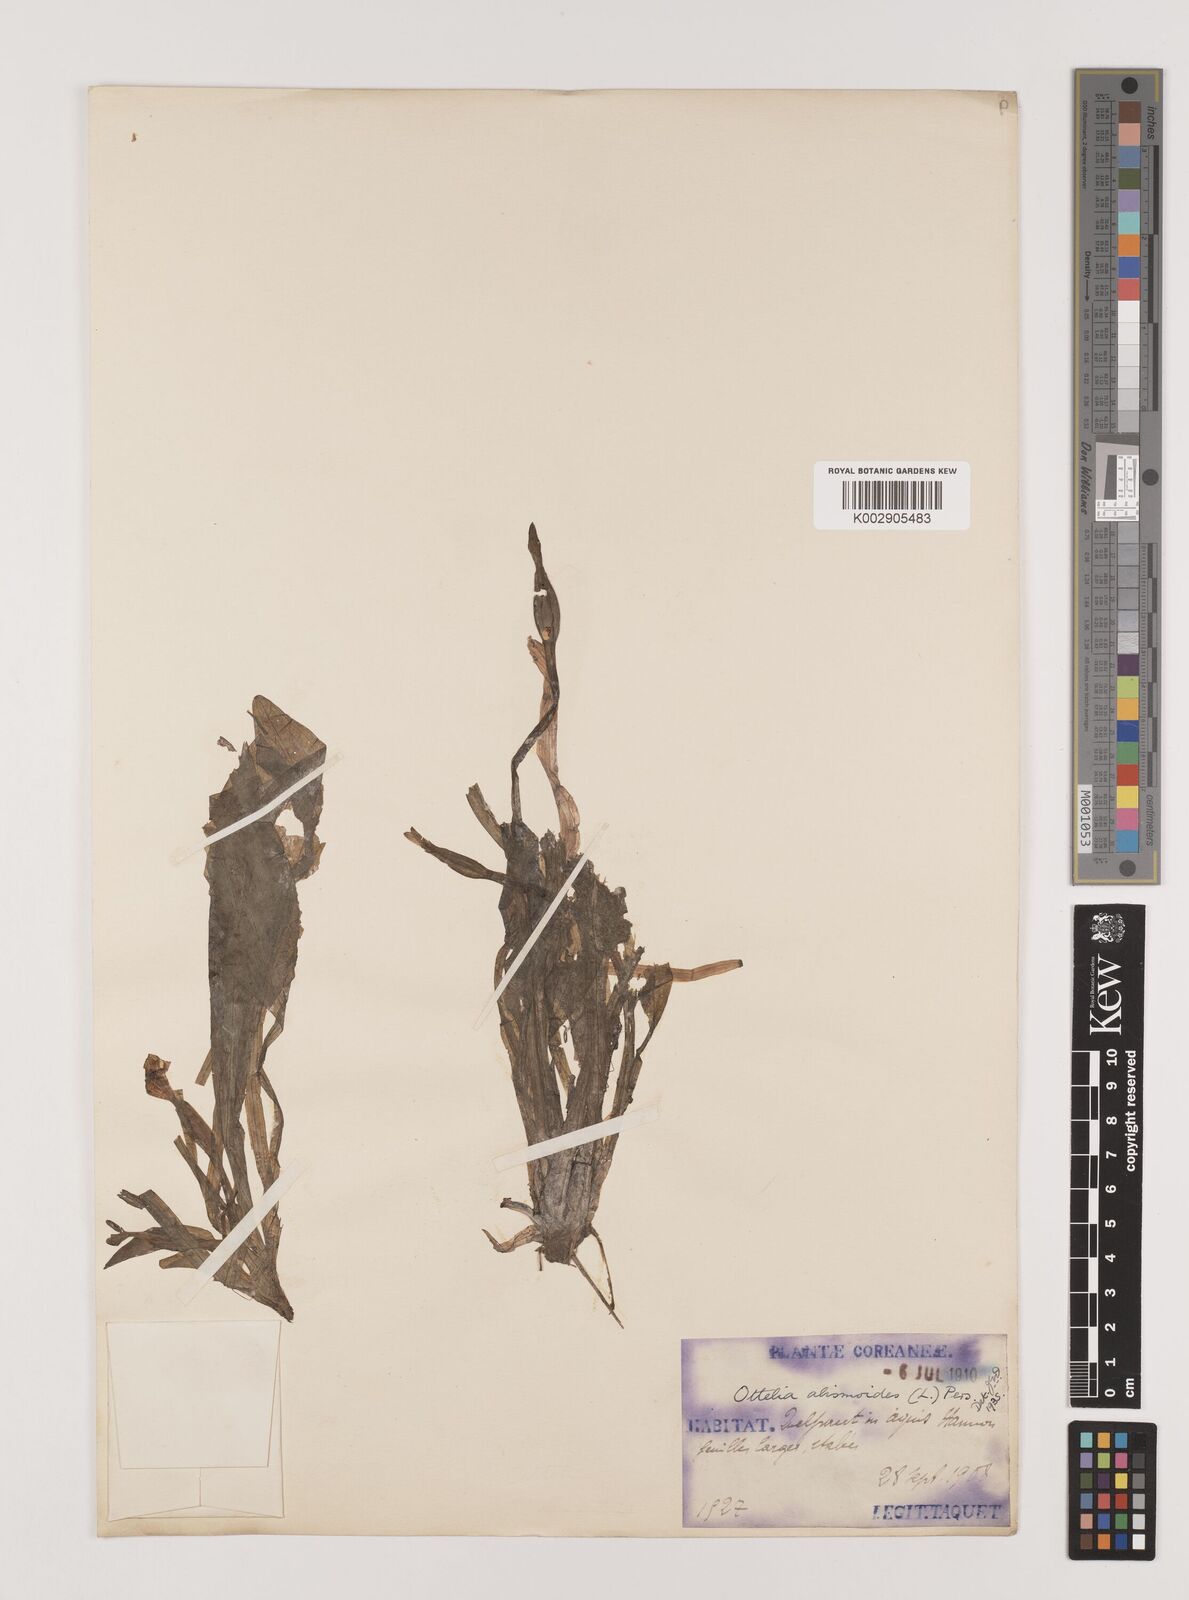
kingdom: Plantae
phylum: Tracheophyta
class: Liliopsida
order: Alismatales
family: Hydrocharitaceae
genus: Ottelia
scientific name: Ottelia alismoides
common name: Duck-lettuce
